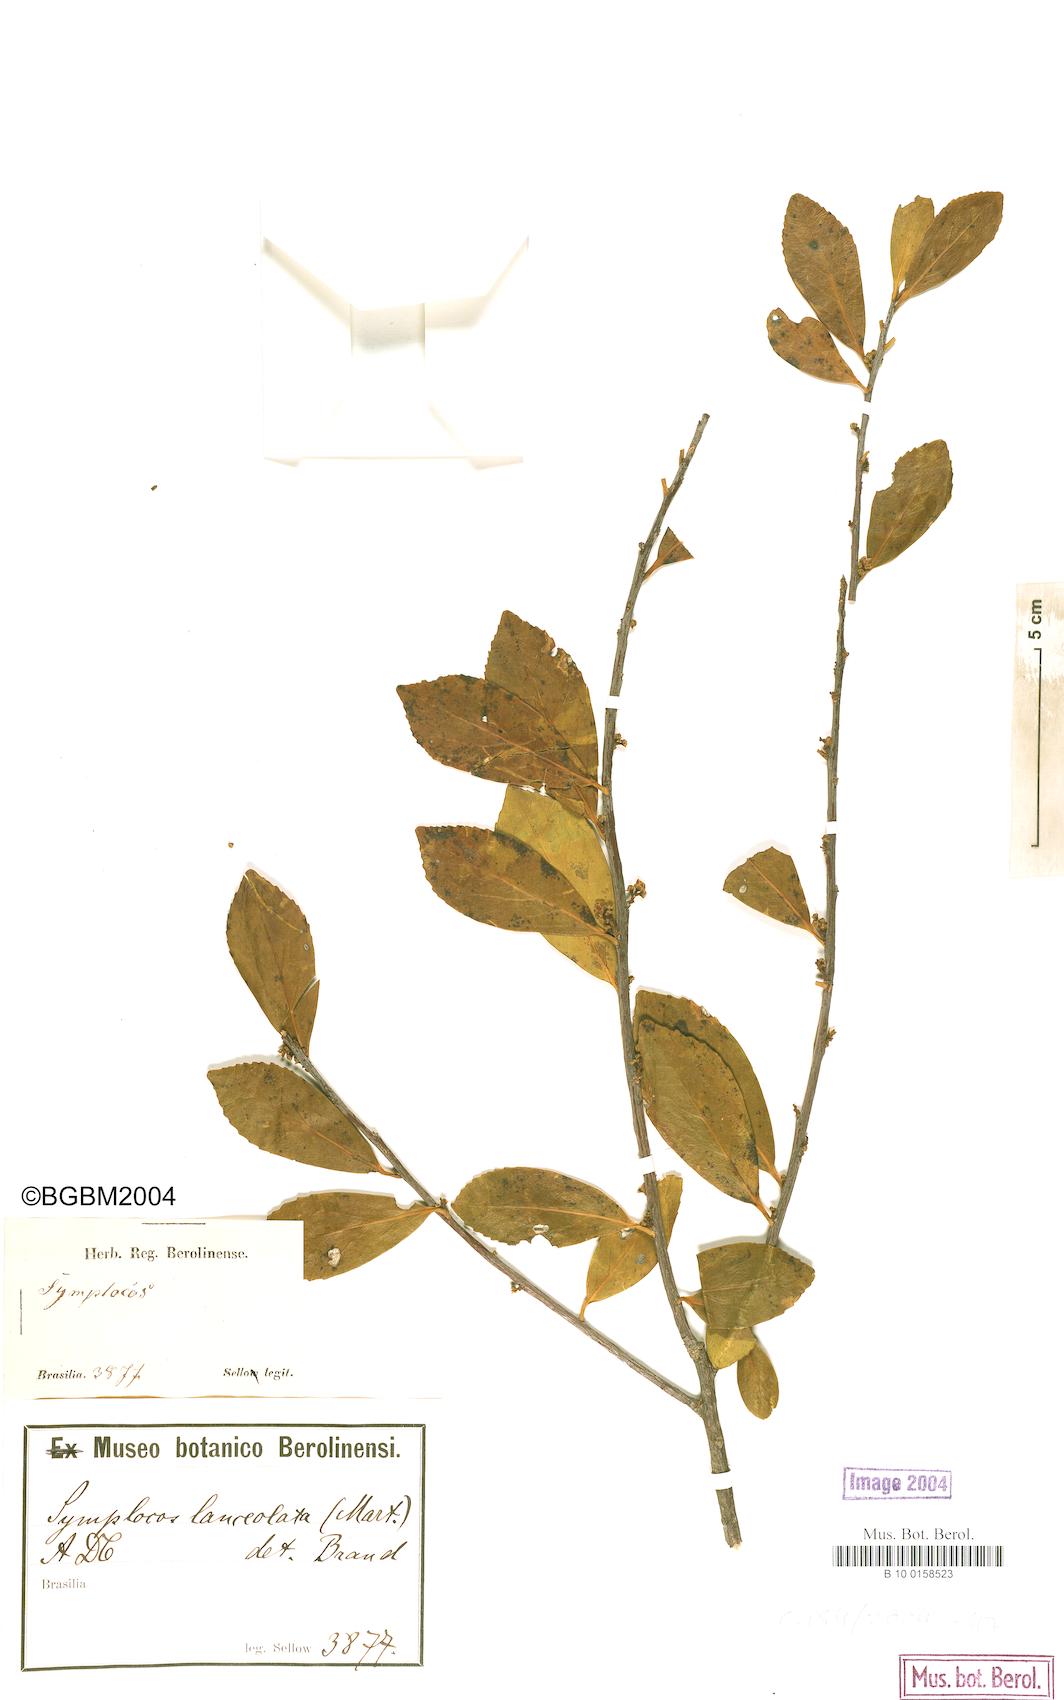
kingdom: Plantae
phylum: Tracheophyta
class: Magnoliopsida
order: Ericales
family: Symplocaceae
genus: Symplocos
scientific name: Symplocos oblongifolia
